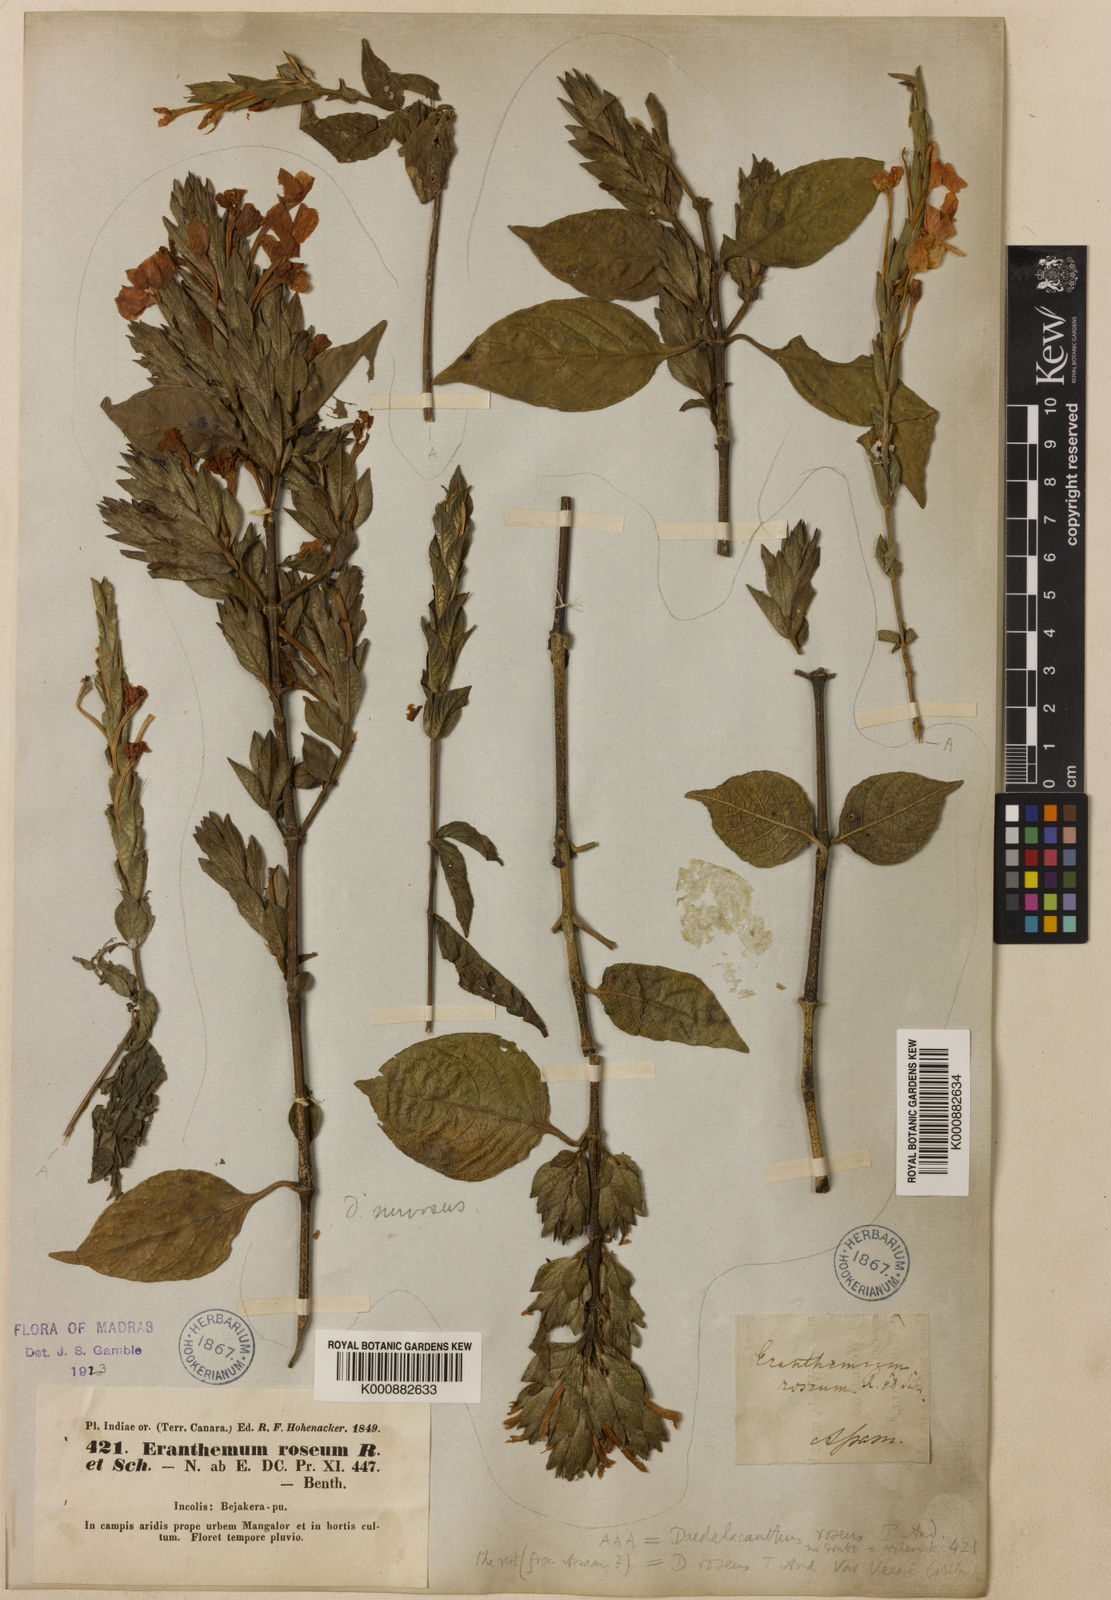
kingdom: Plantae
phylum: Tracheophyta
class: Magnoliopsida
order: Lamiales
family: Acanthaceae
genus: Eranthemum
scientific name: Eranthemum
